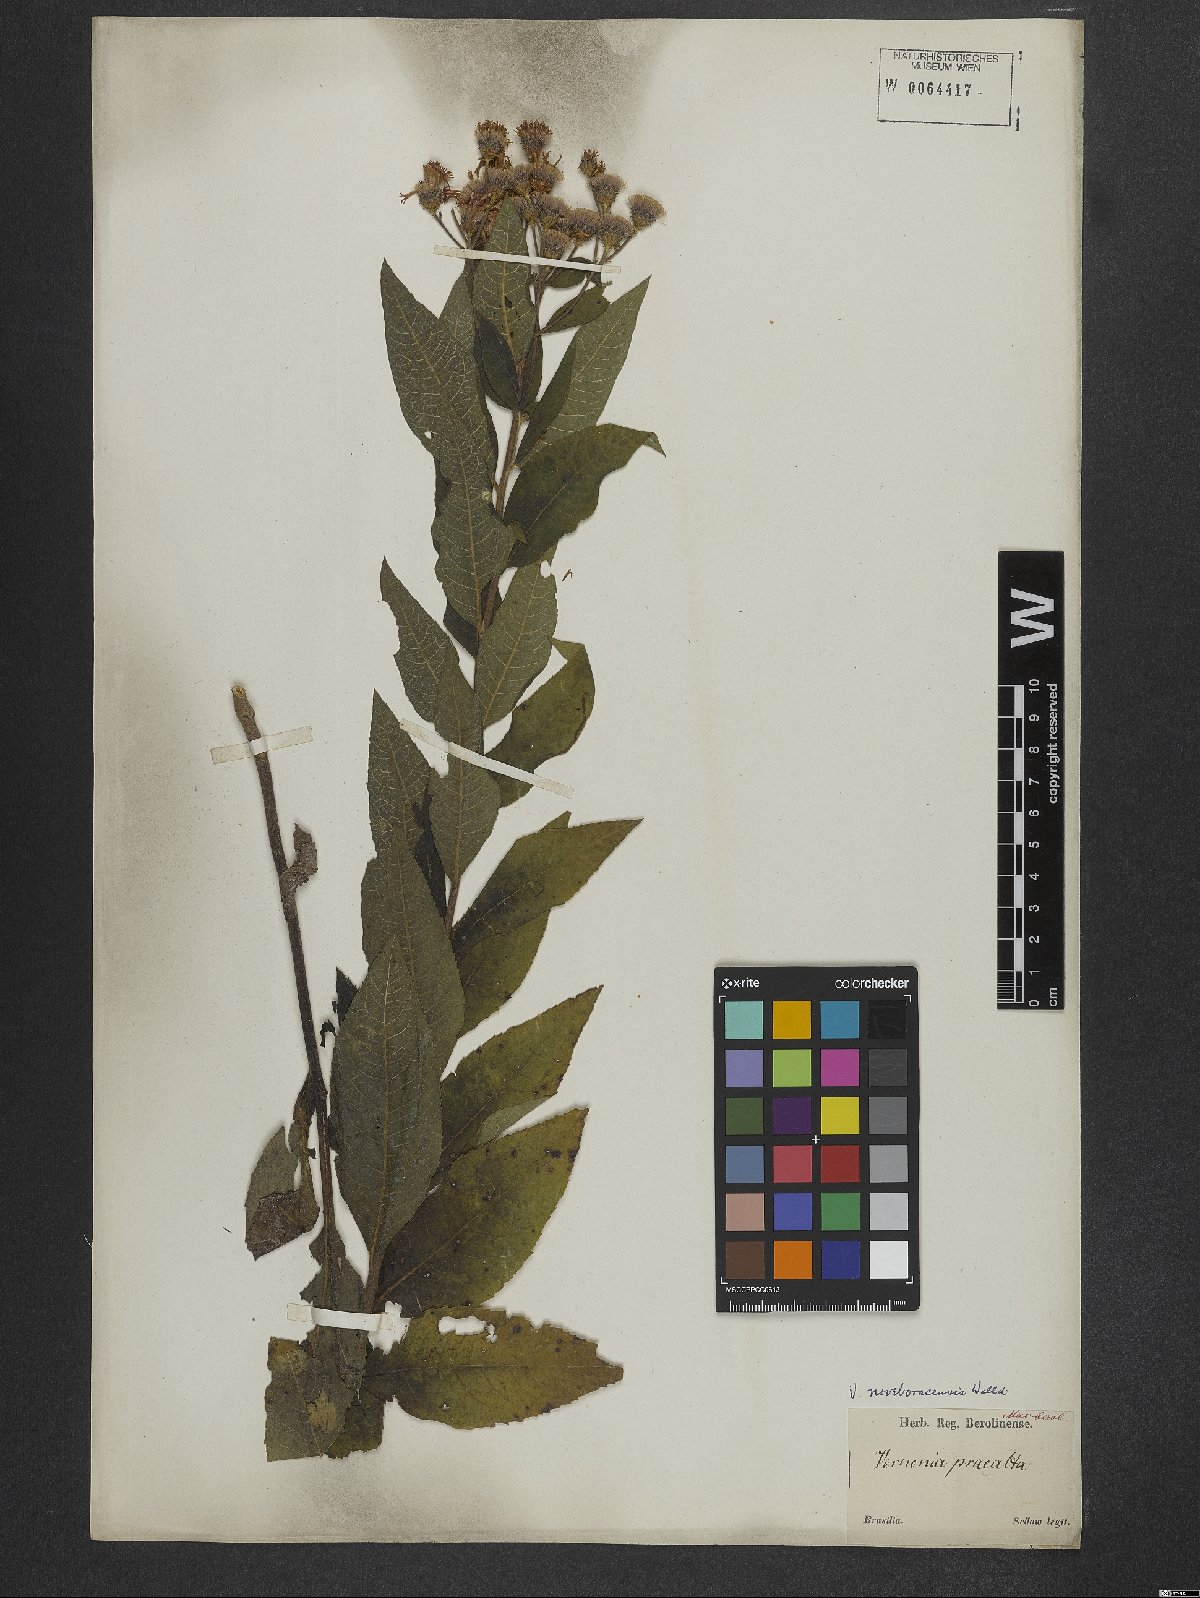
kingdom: Plantae
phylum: Tracheophyta
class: Magnoliopsida
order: Asterales
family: Asteraceae
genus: Vernonia
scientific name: Vernonia noveboracensis
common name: New york ironweed
